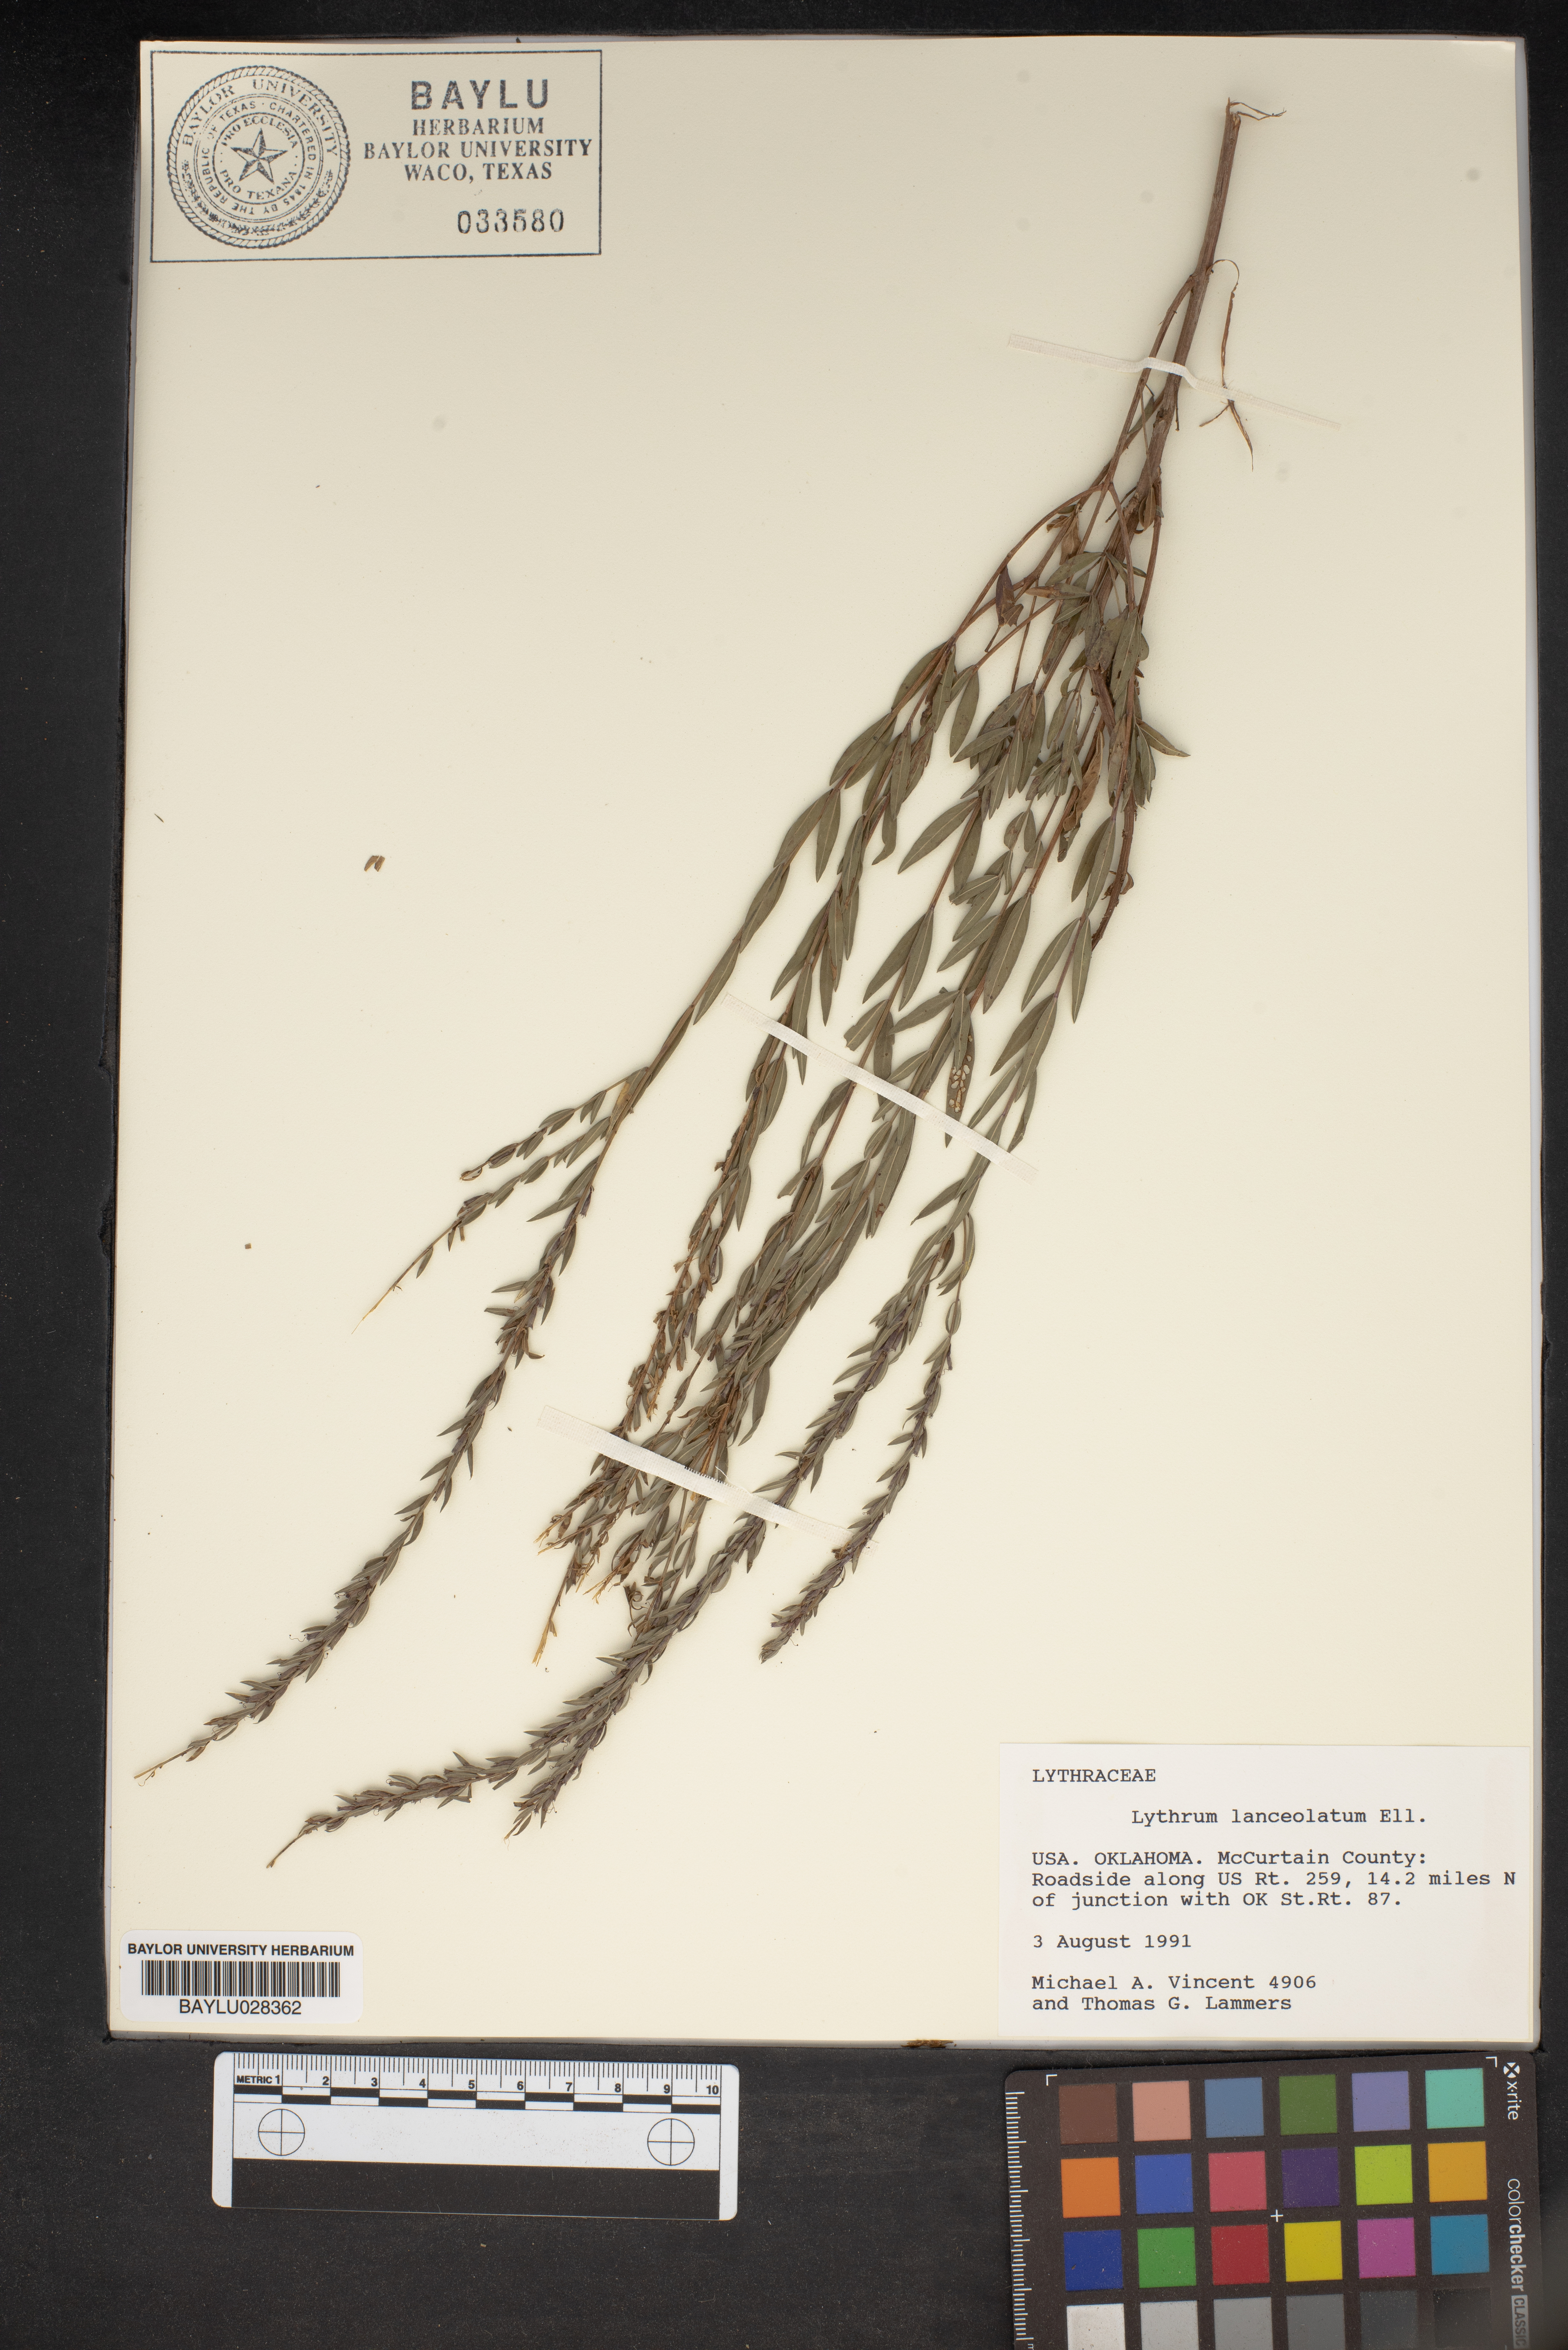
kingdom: Plantae
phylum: Tracheophyta
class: Magnoliopsida
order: Myrtales
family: Lythraceae
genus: Lythrum
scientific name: Lythrum alatum
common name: Winged loosestrife
